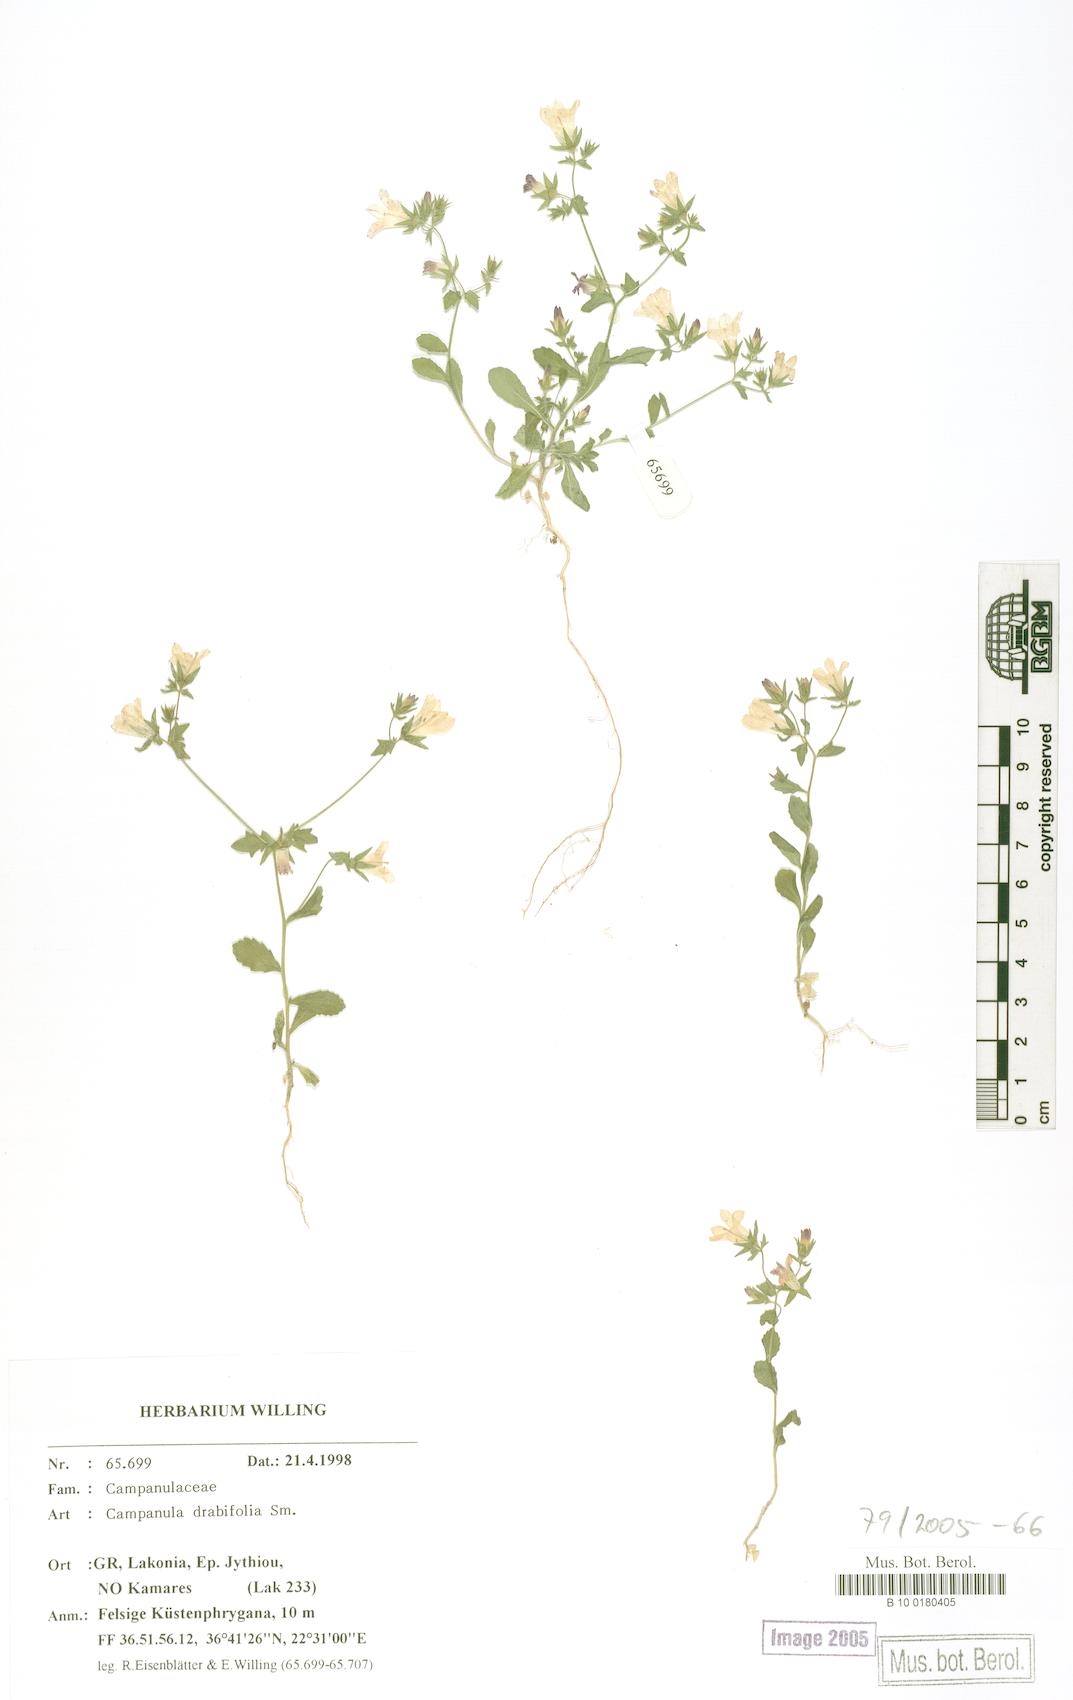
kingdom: Plantae
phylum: Tracheophyta
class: Magnoliopsida
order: Asterales
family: Campanulaceae
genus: Campanula
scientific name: Campanula drabifolia
